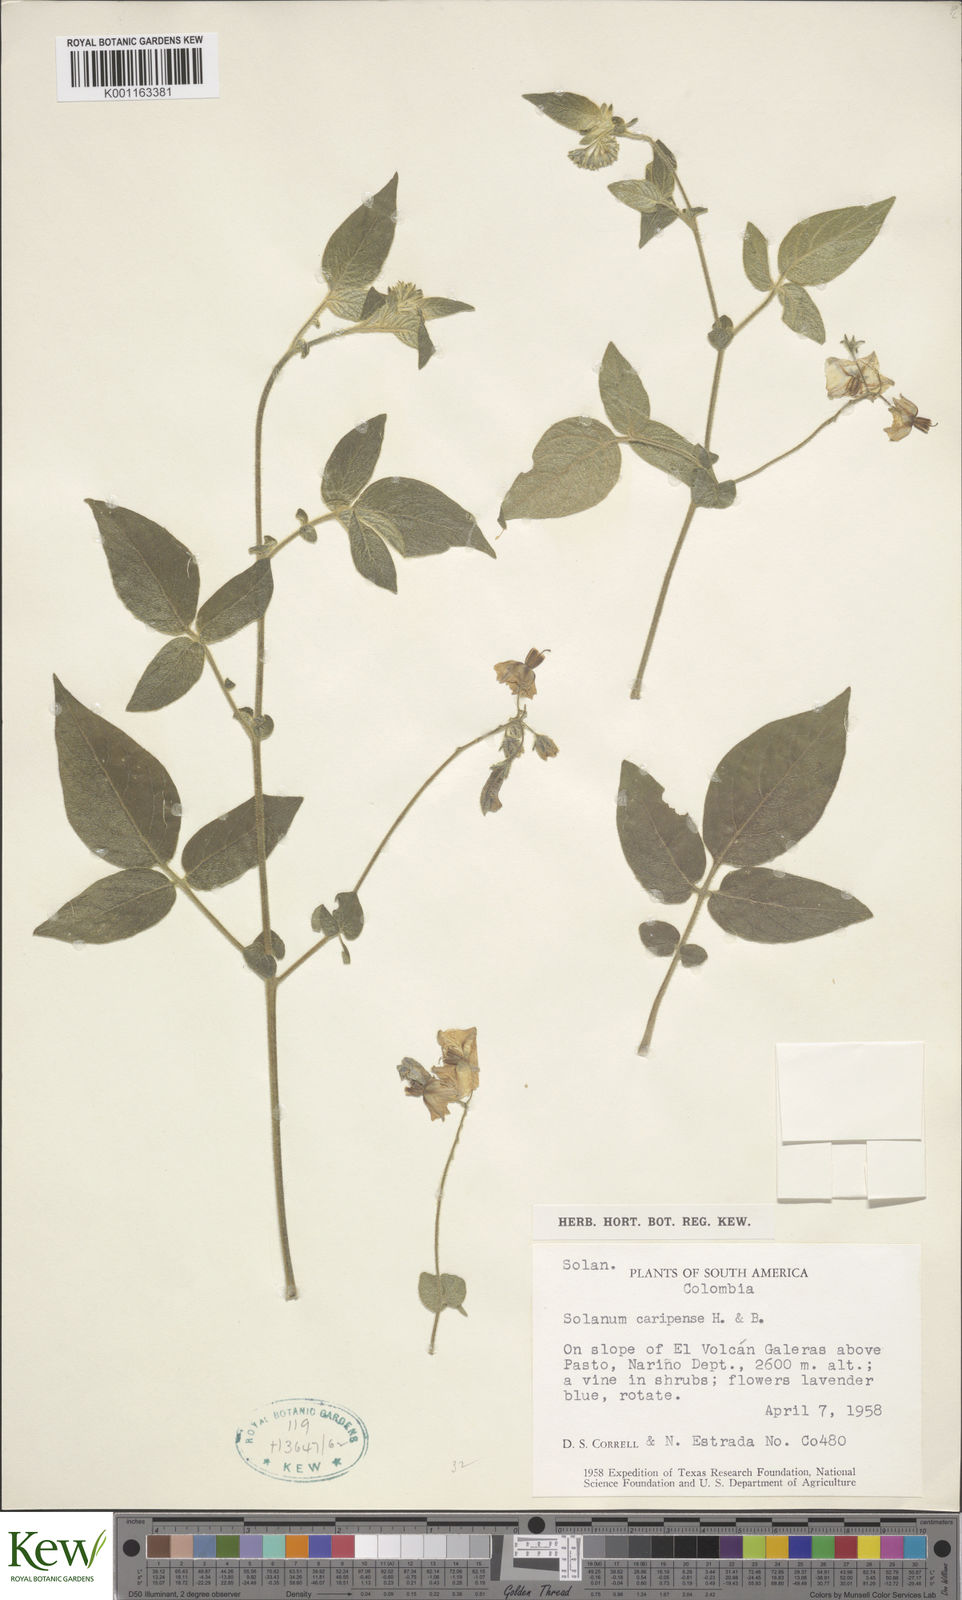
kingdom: Plantae
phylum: Tracheophyta
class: Magnoliopsida
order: Solanales
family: Solanaceae
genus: Solanum
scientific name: Solanum caripense
